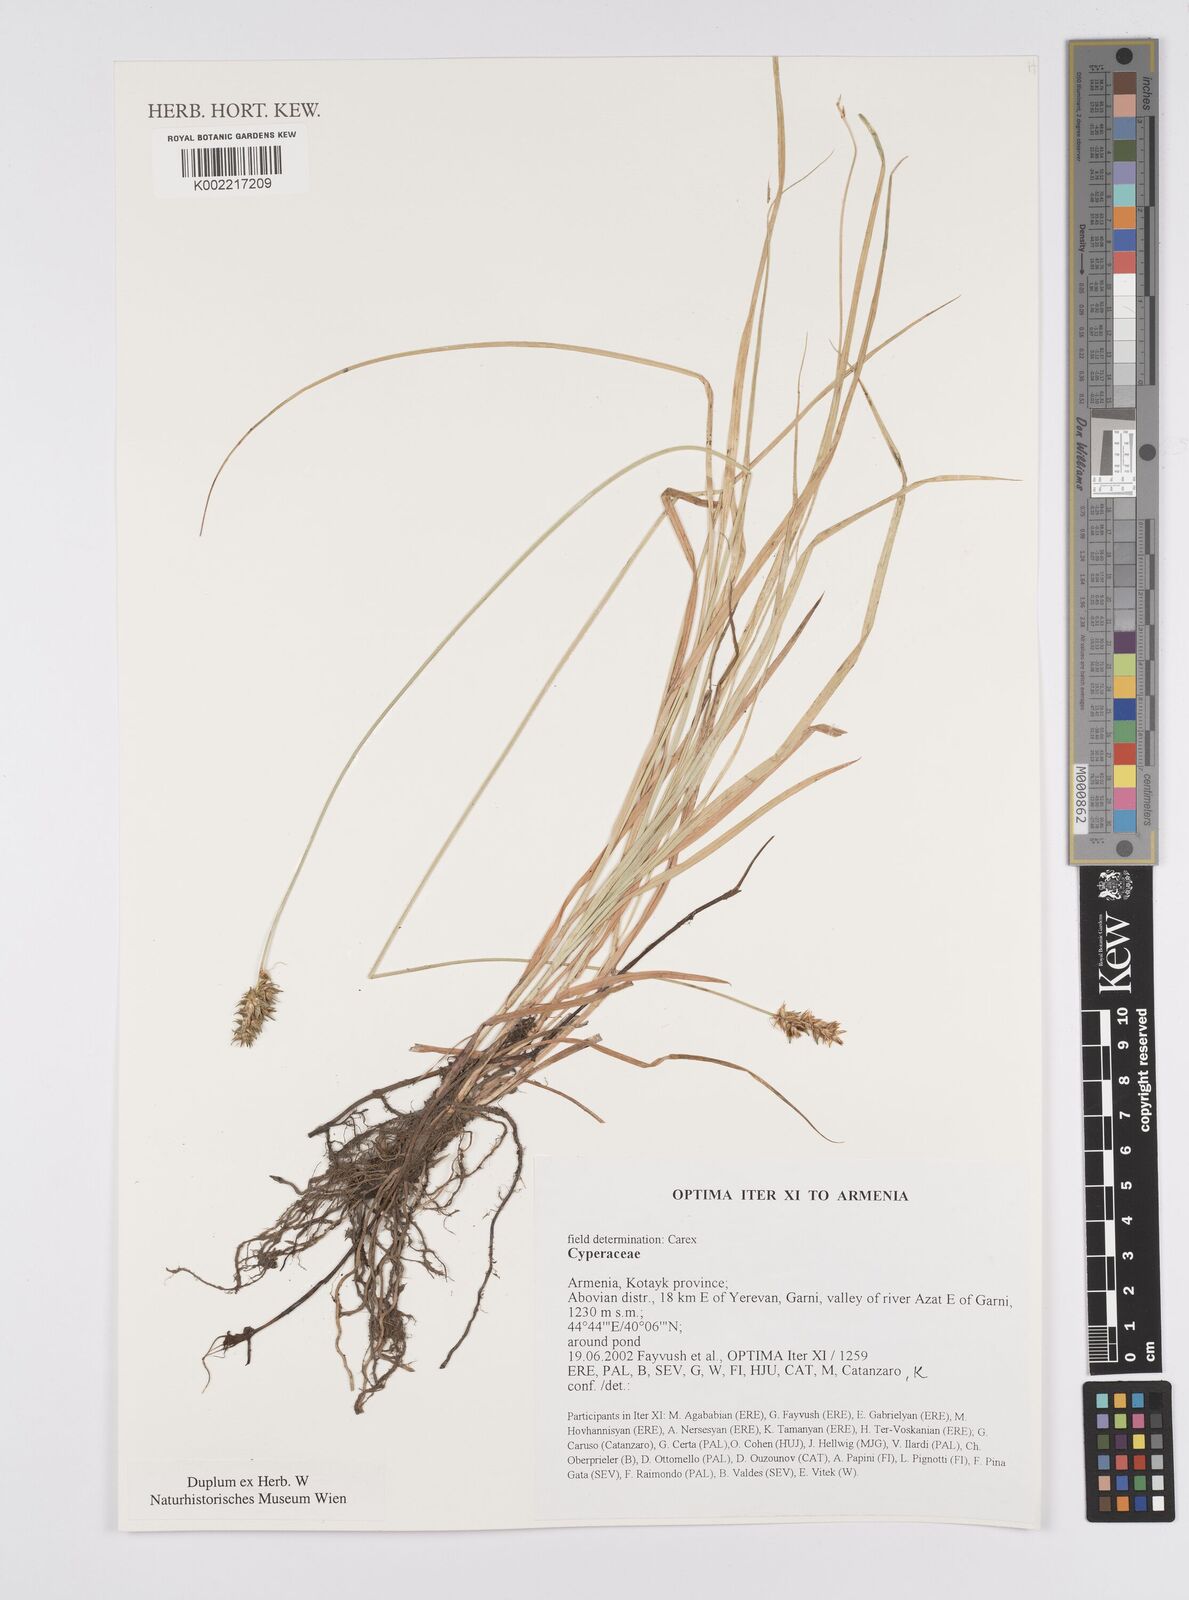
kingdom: Plantae
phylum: Tracheophyta
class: Liliopsida
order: Poales
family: Cyperaceae
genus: Carex
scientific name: Carex
